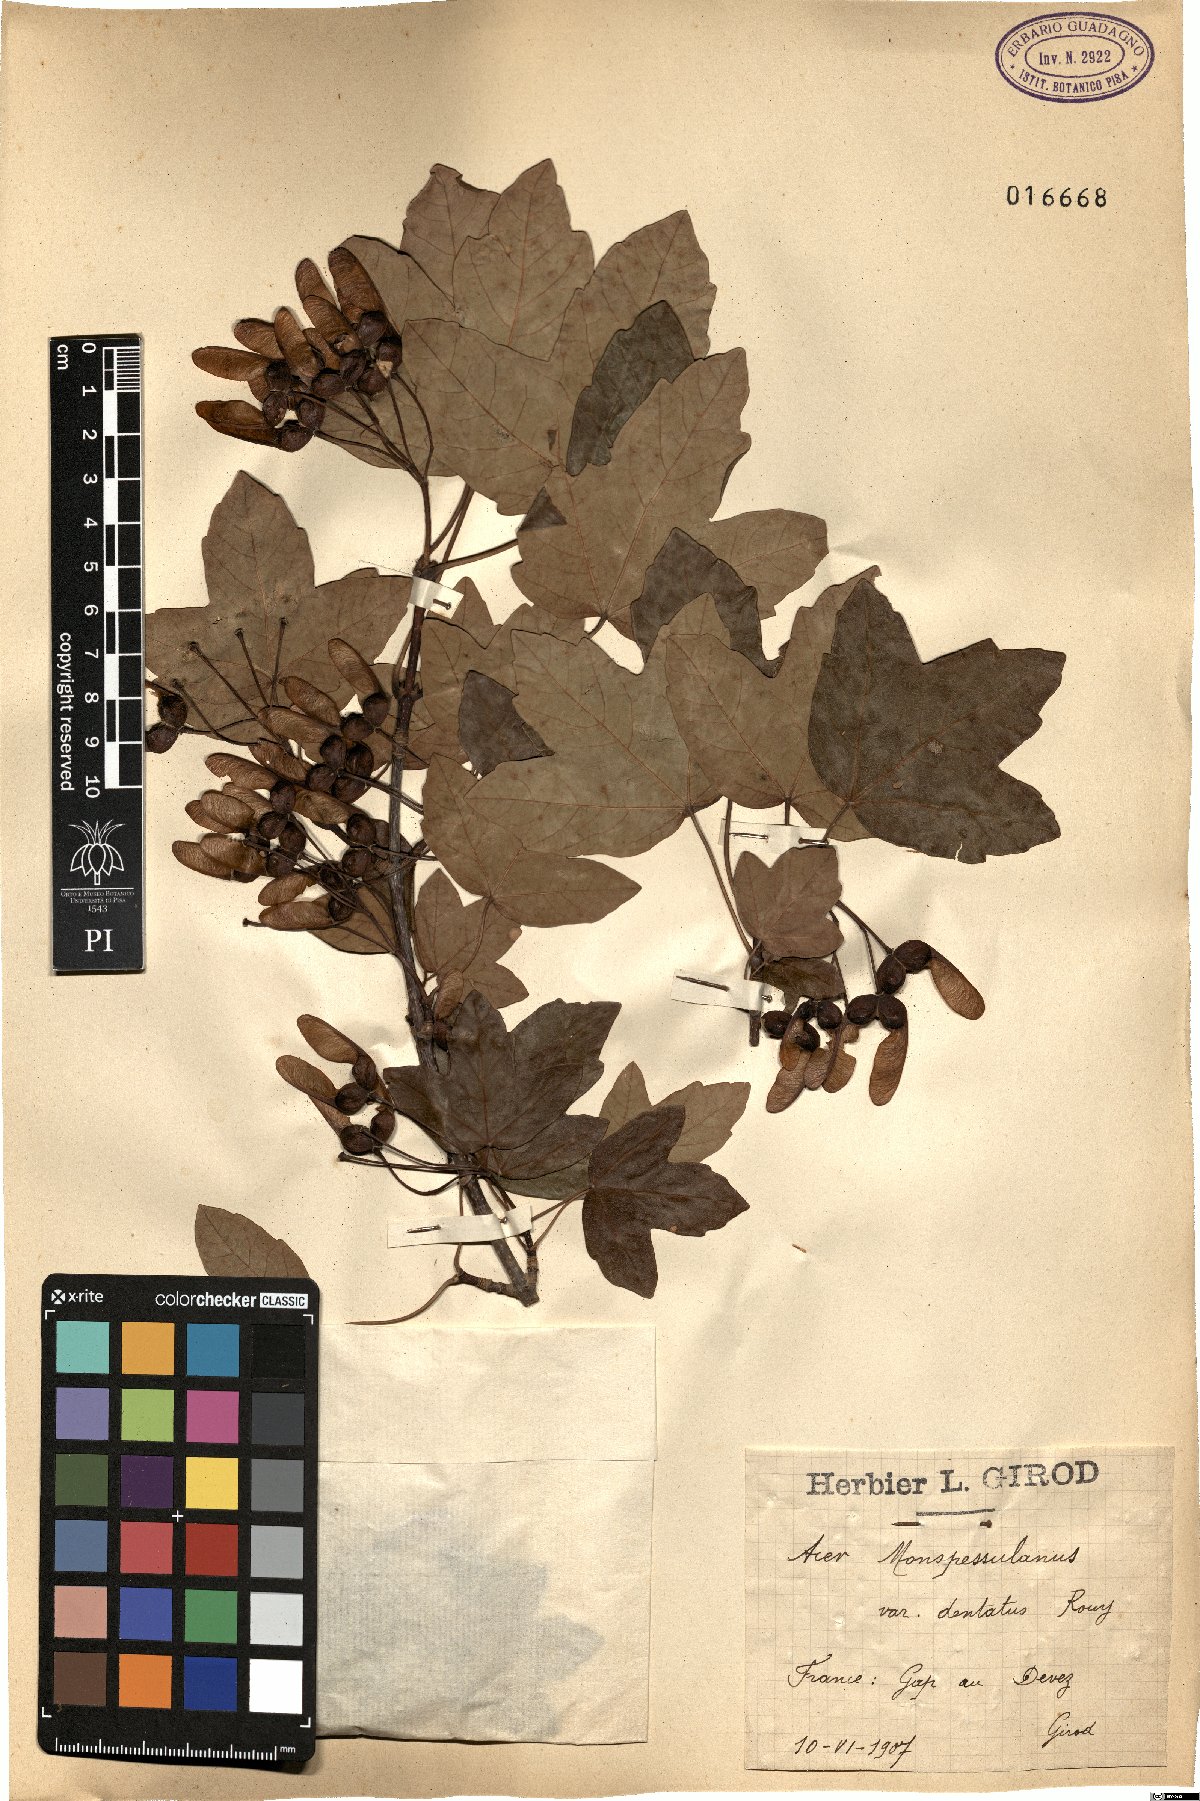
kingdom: Plantae
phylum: Tracheophyta
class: Magnoliopsida
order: Sapindales
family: Sapindaceae
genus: Acer
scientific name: Acer monspessulanum
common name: Montpellier maple
